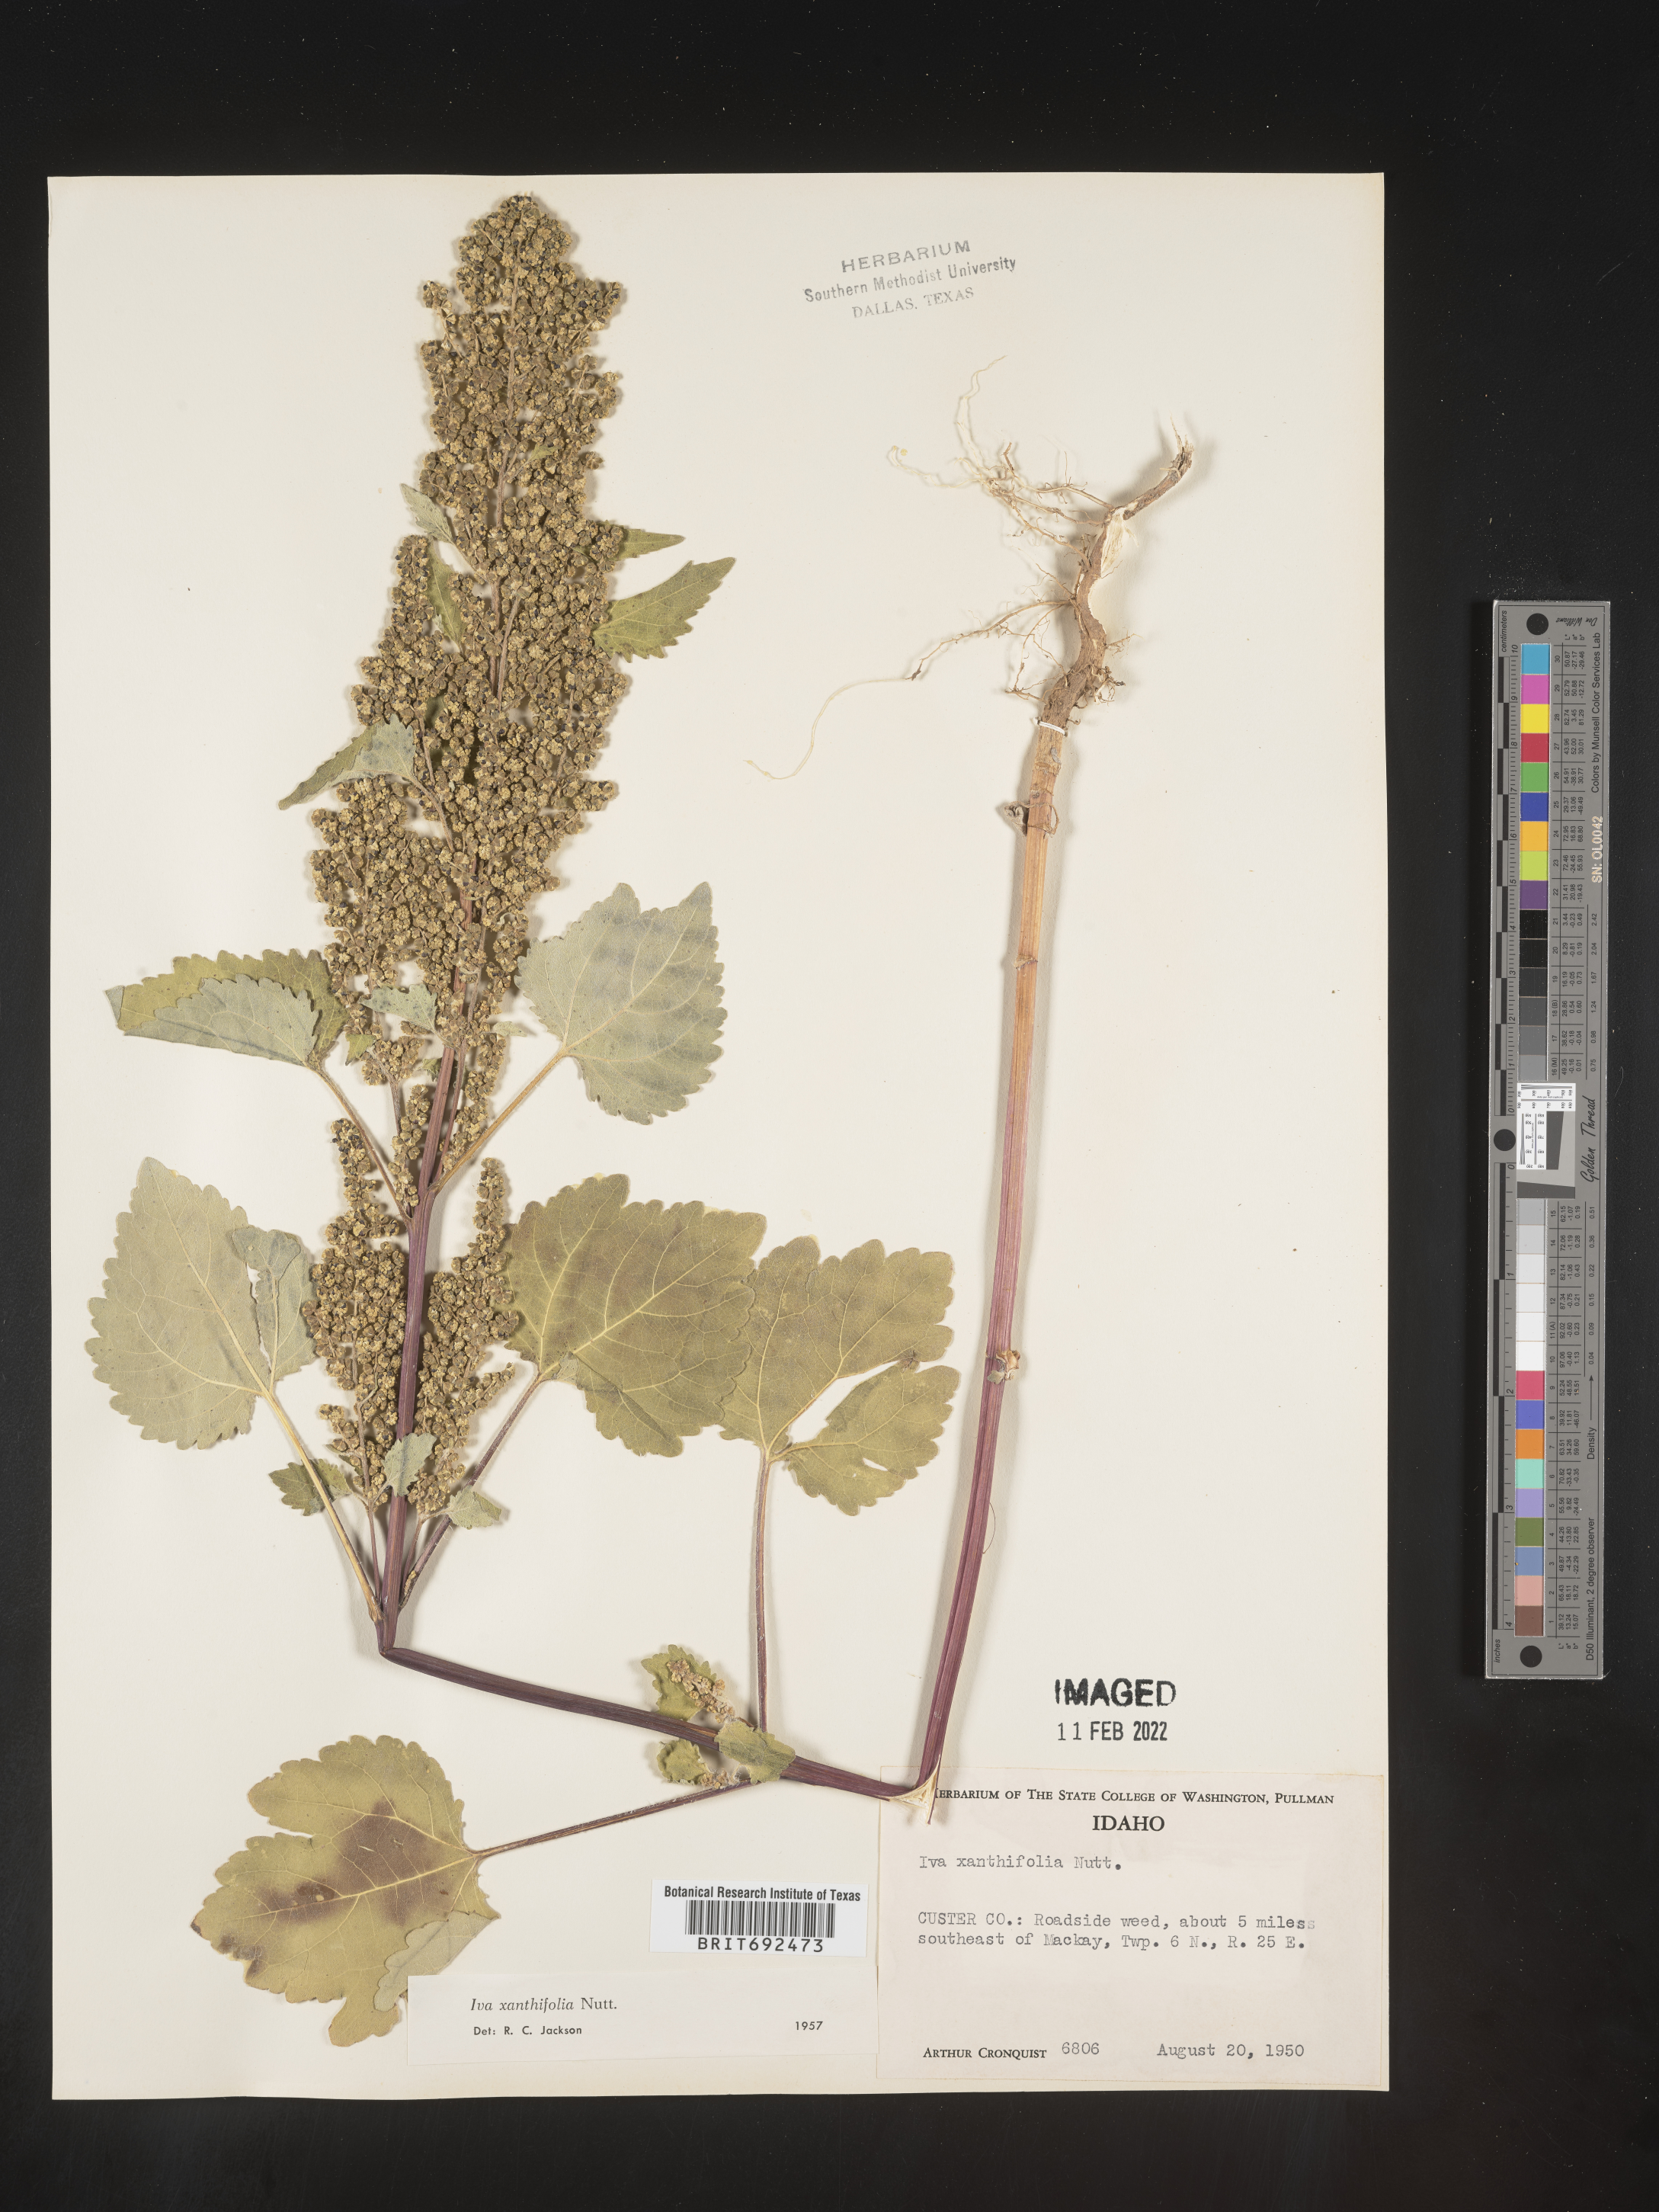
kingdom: Plantae
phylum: Tracheophyta
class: Magnoliopsida
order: Asterales
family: Asteraceae
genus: Cyclachaena
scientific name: Cyclachaena
